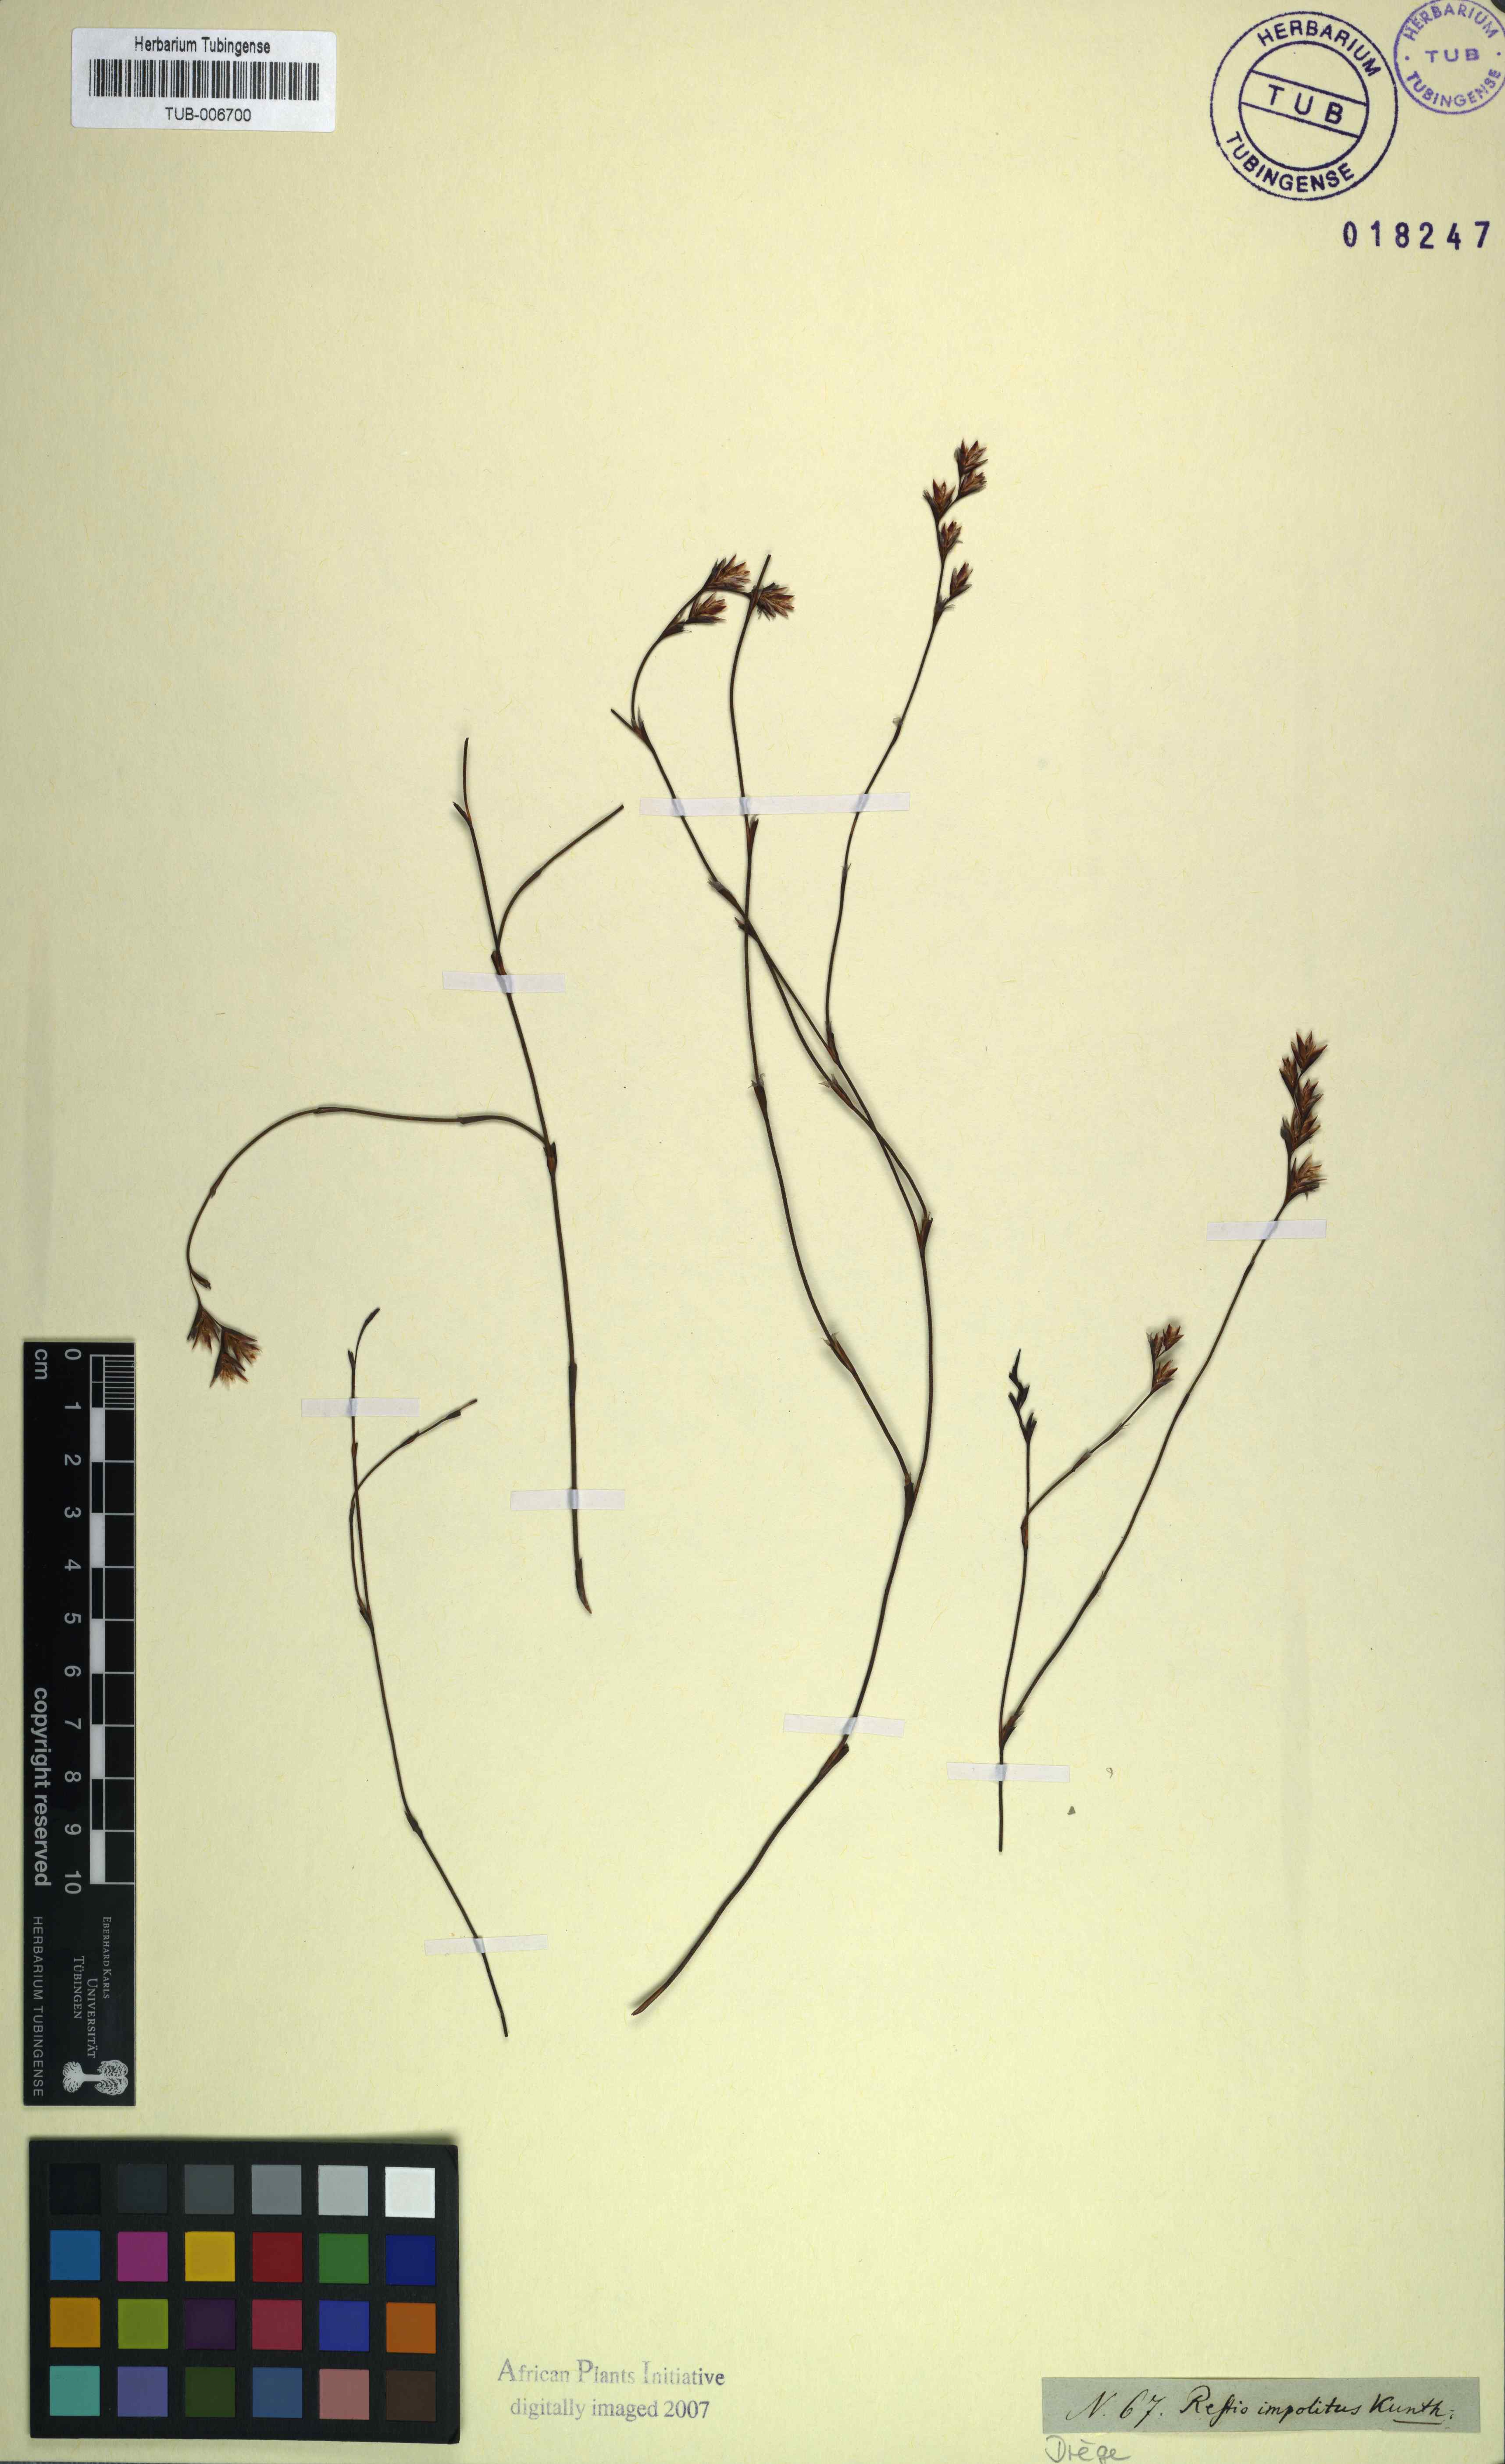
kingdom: Plantae
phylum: Tracheophyta
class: Liliopsida
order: Poales
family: Restionaceae
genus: Restio
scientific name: Restio impolitus
